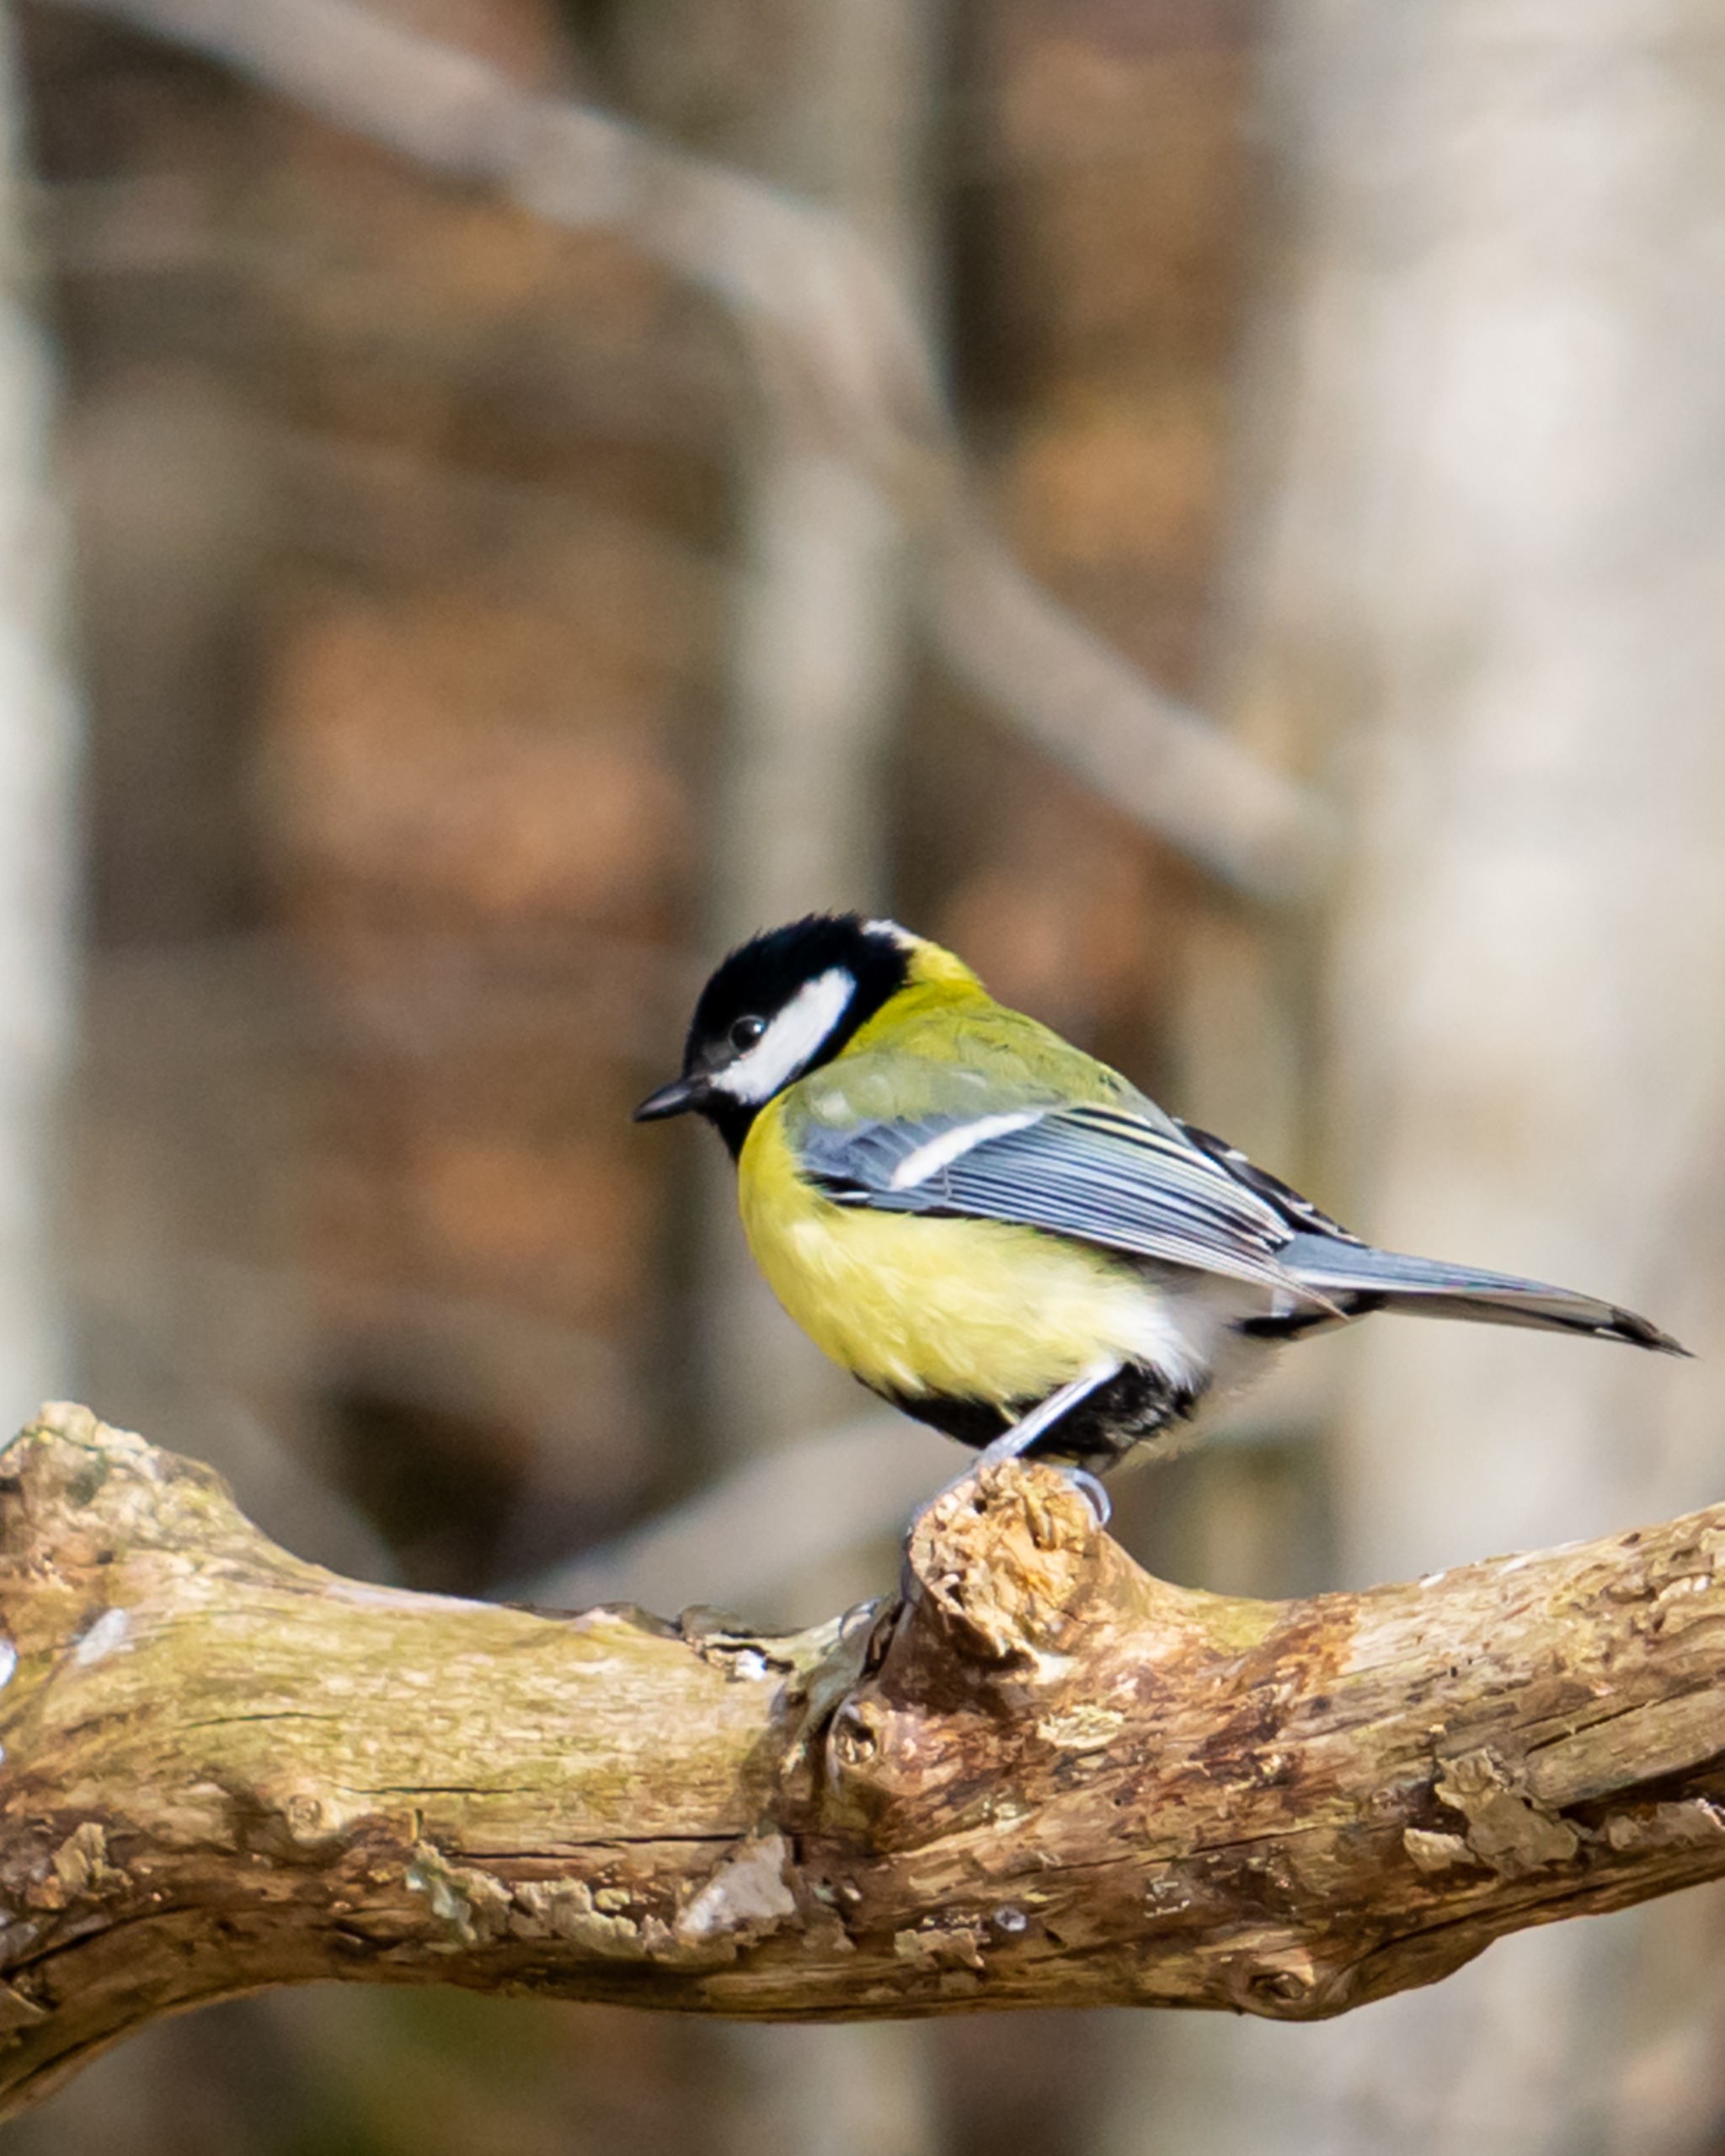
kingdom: Animalia
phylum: Chordata
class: Aves
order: Passeriformes
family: Paridae
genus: Parus
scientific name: Parus major
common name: Musvit
